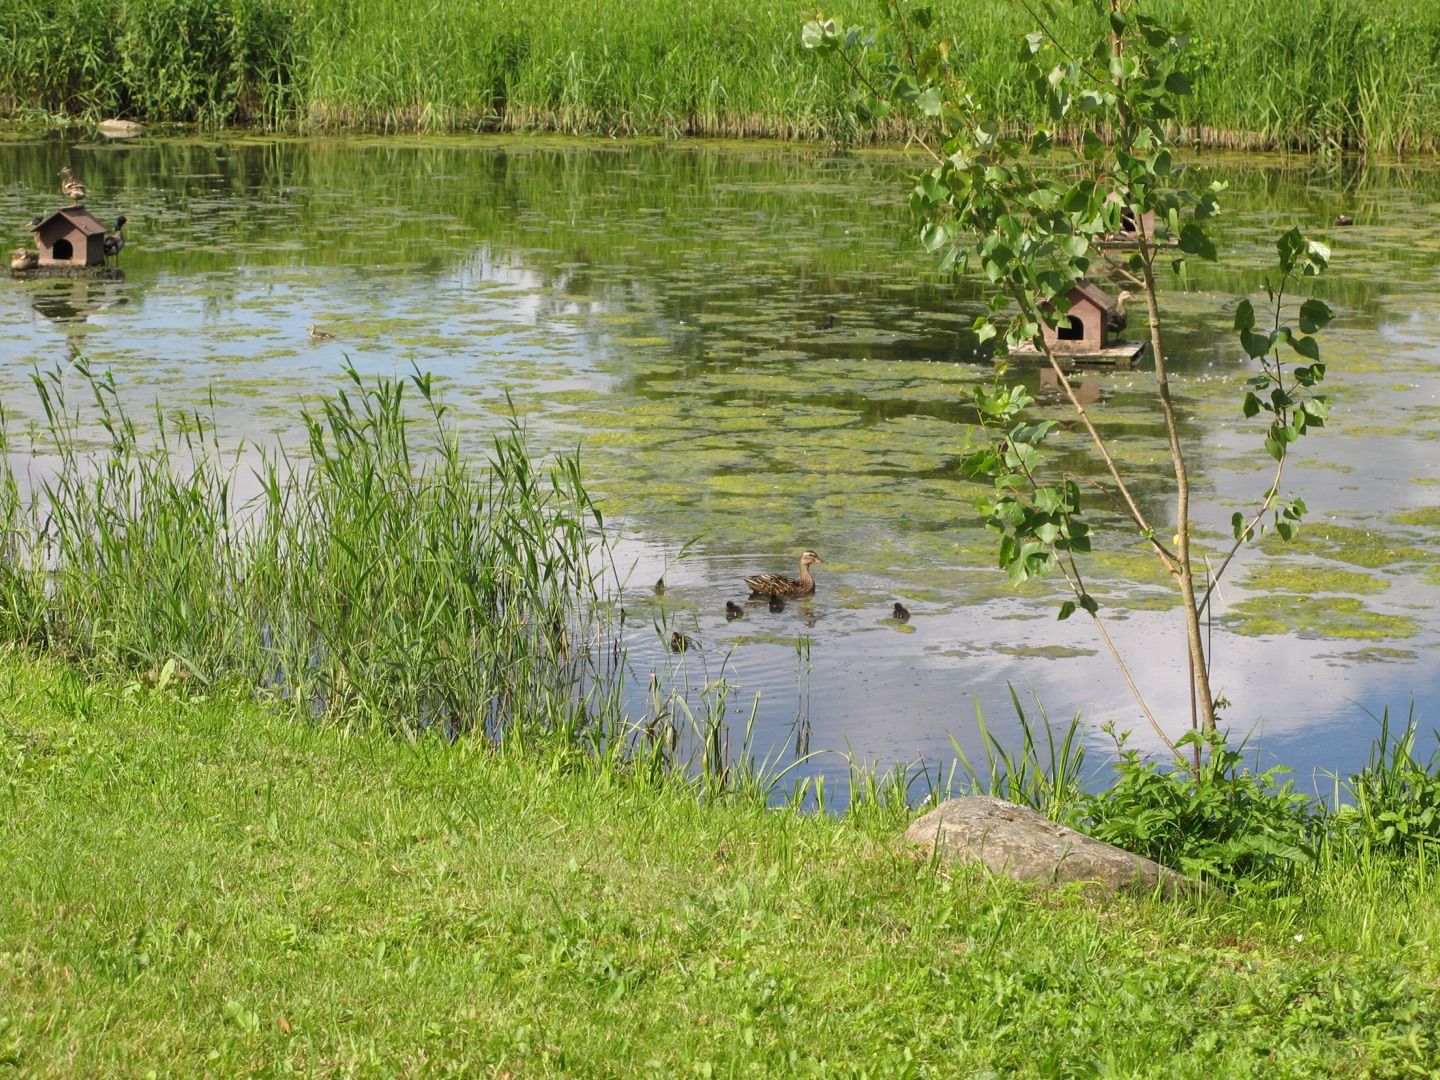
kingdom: Animalia
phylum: Arthropoda
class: Insecta
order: Lepidoptera
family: Nymphalidae
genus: Aglais
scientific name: Aglais urticae
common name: Nældens takvinge
